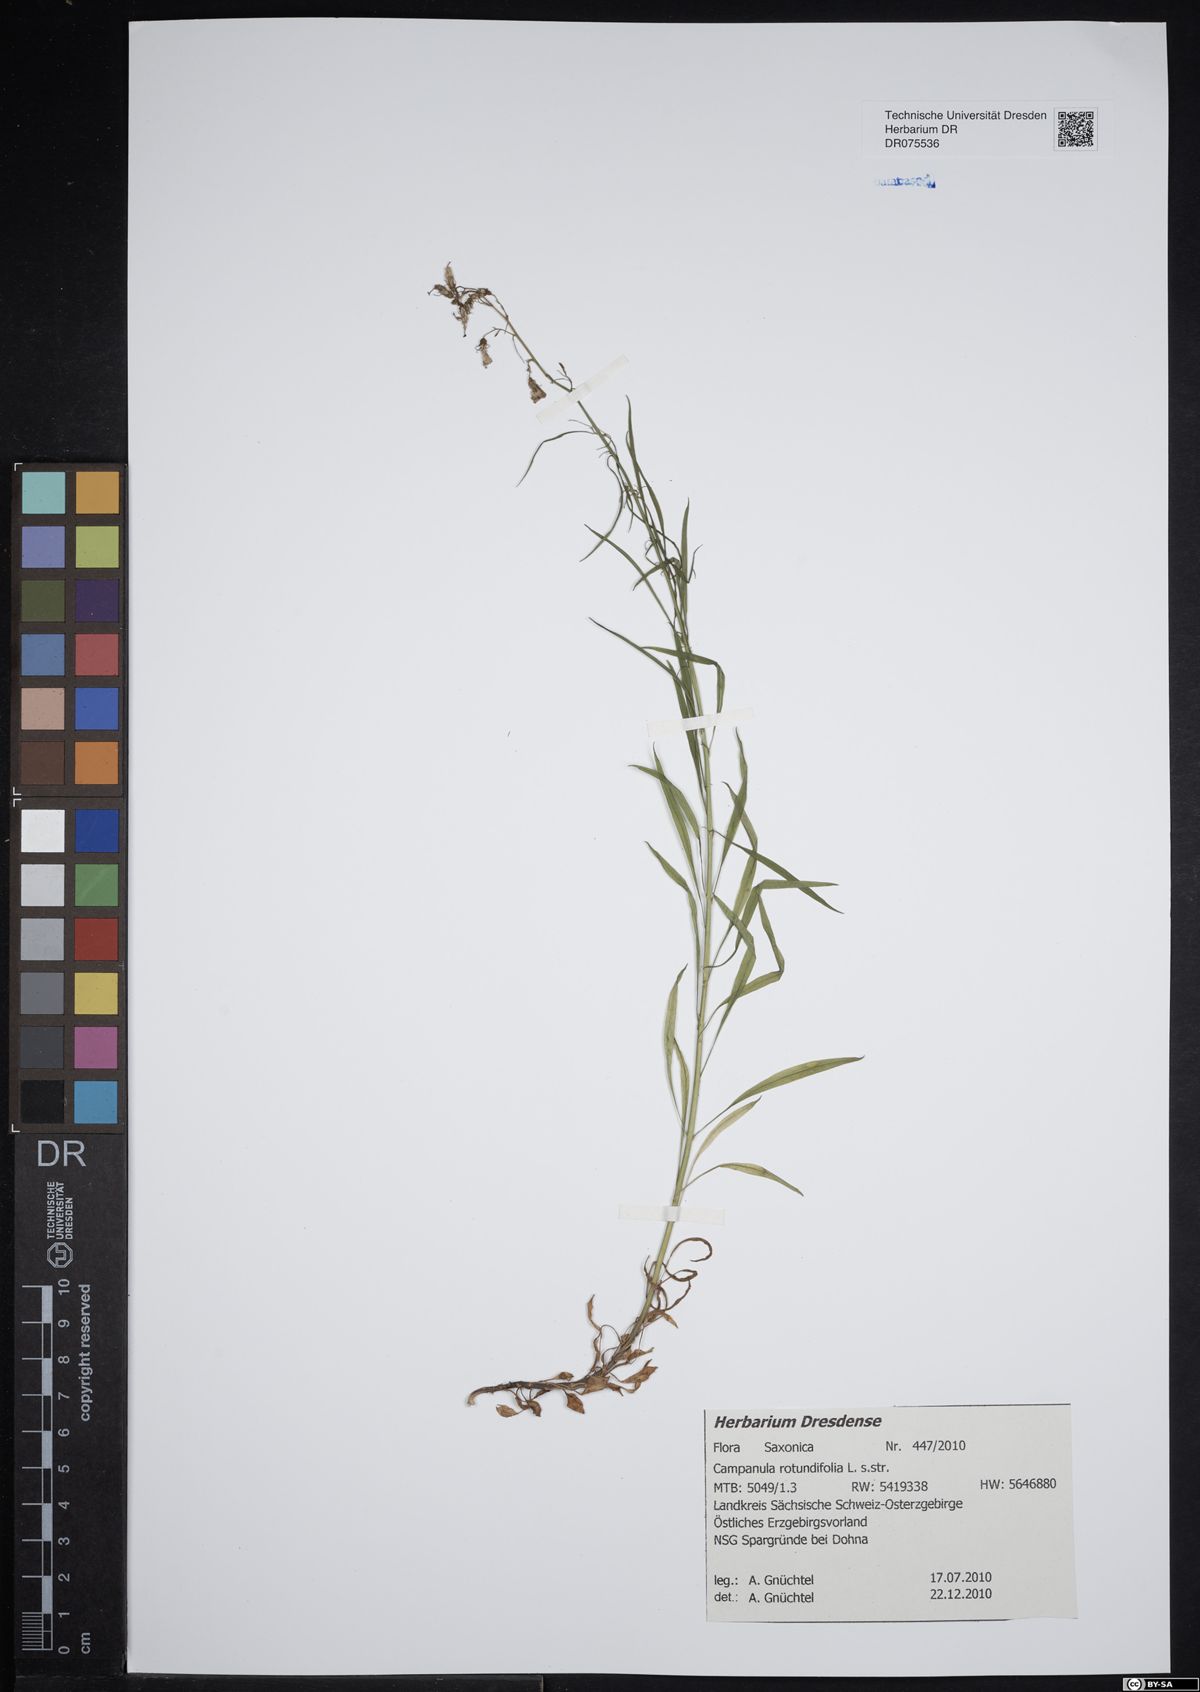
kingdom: Plantae
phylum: Tracheophyta
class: Magnoliopsida
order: Asterales
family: Campanulaceae
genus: Campanula
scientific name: Campanula rotundifolia
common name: Harebell
